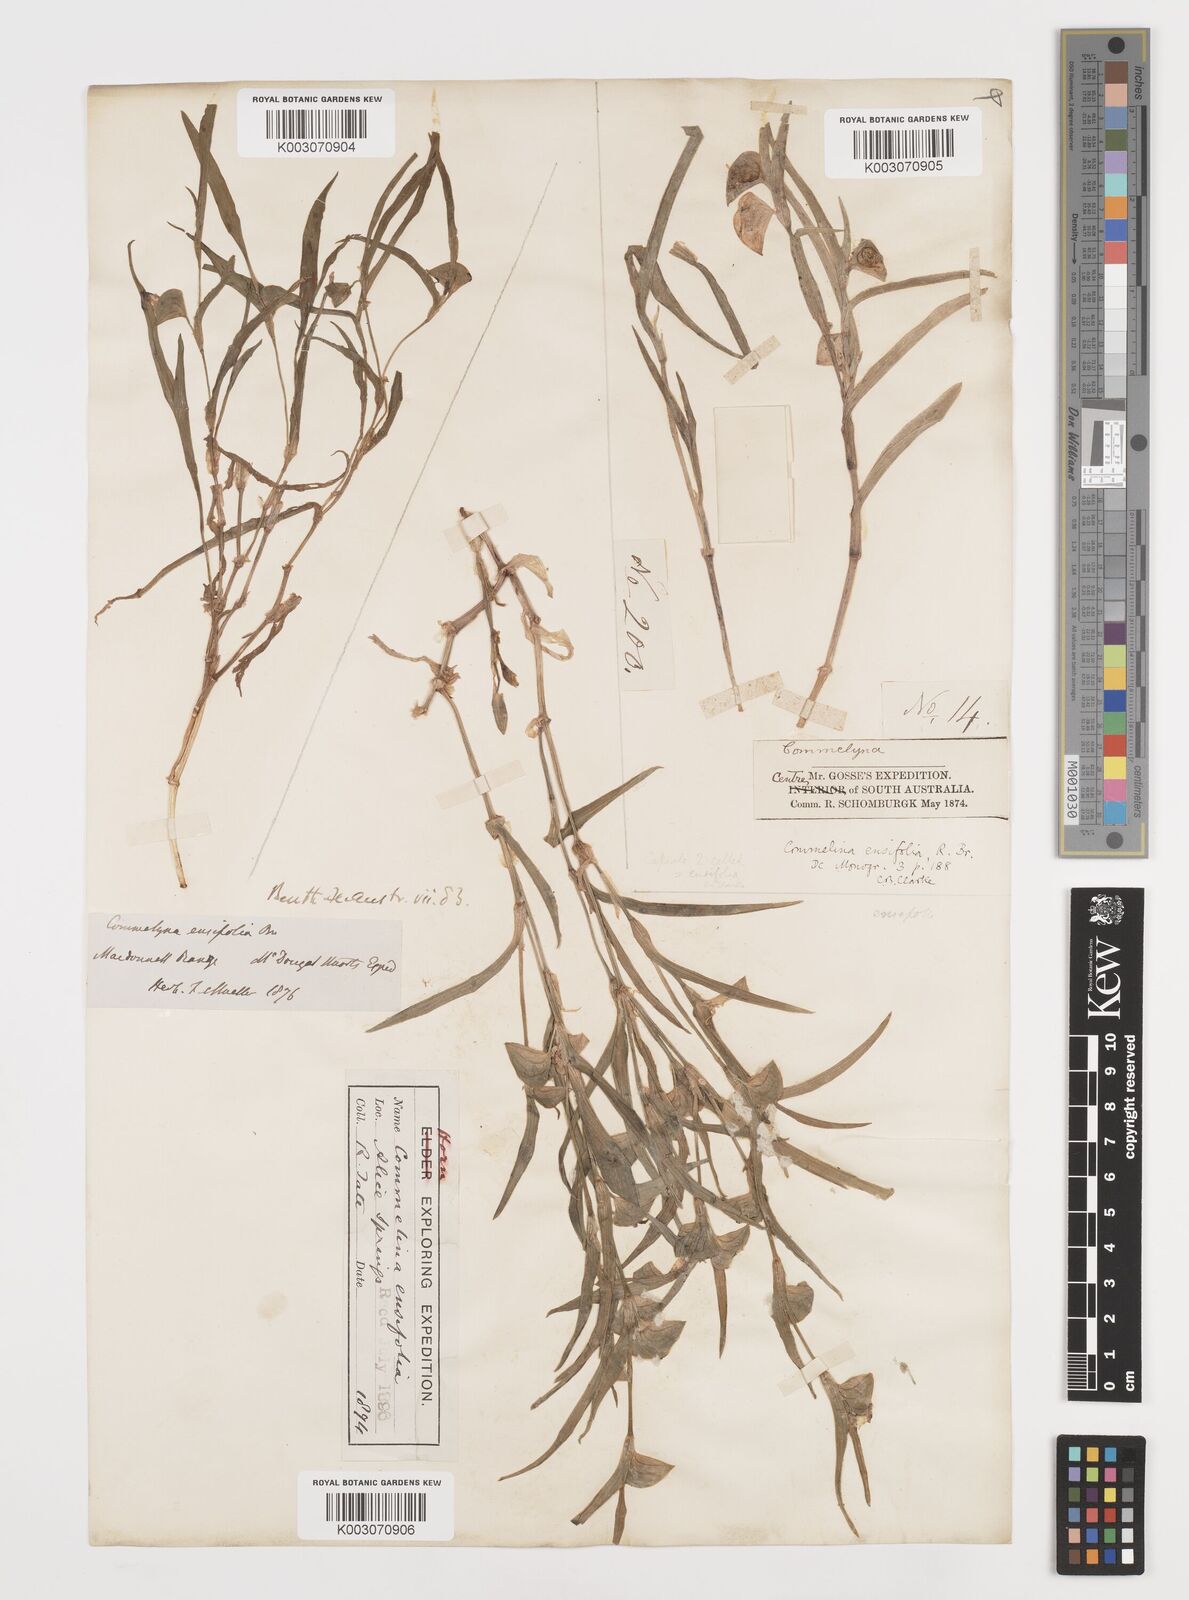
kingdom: Plantae
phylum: Tracheophyta
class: Liliopsida
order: Commelinales
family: Commelinaceae
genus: Commelina
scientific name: Commelina ensifolia
